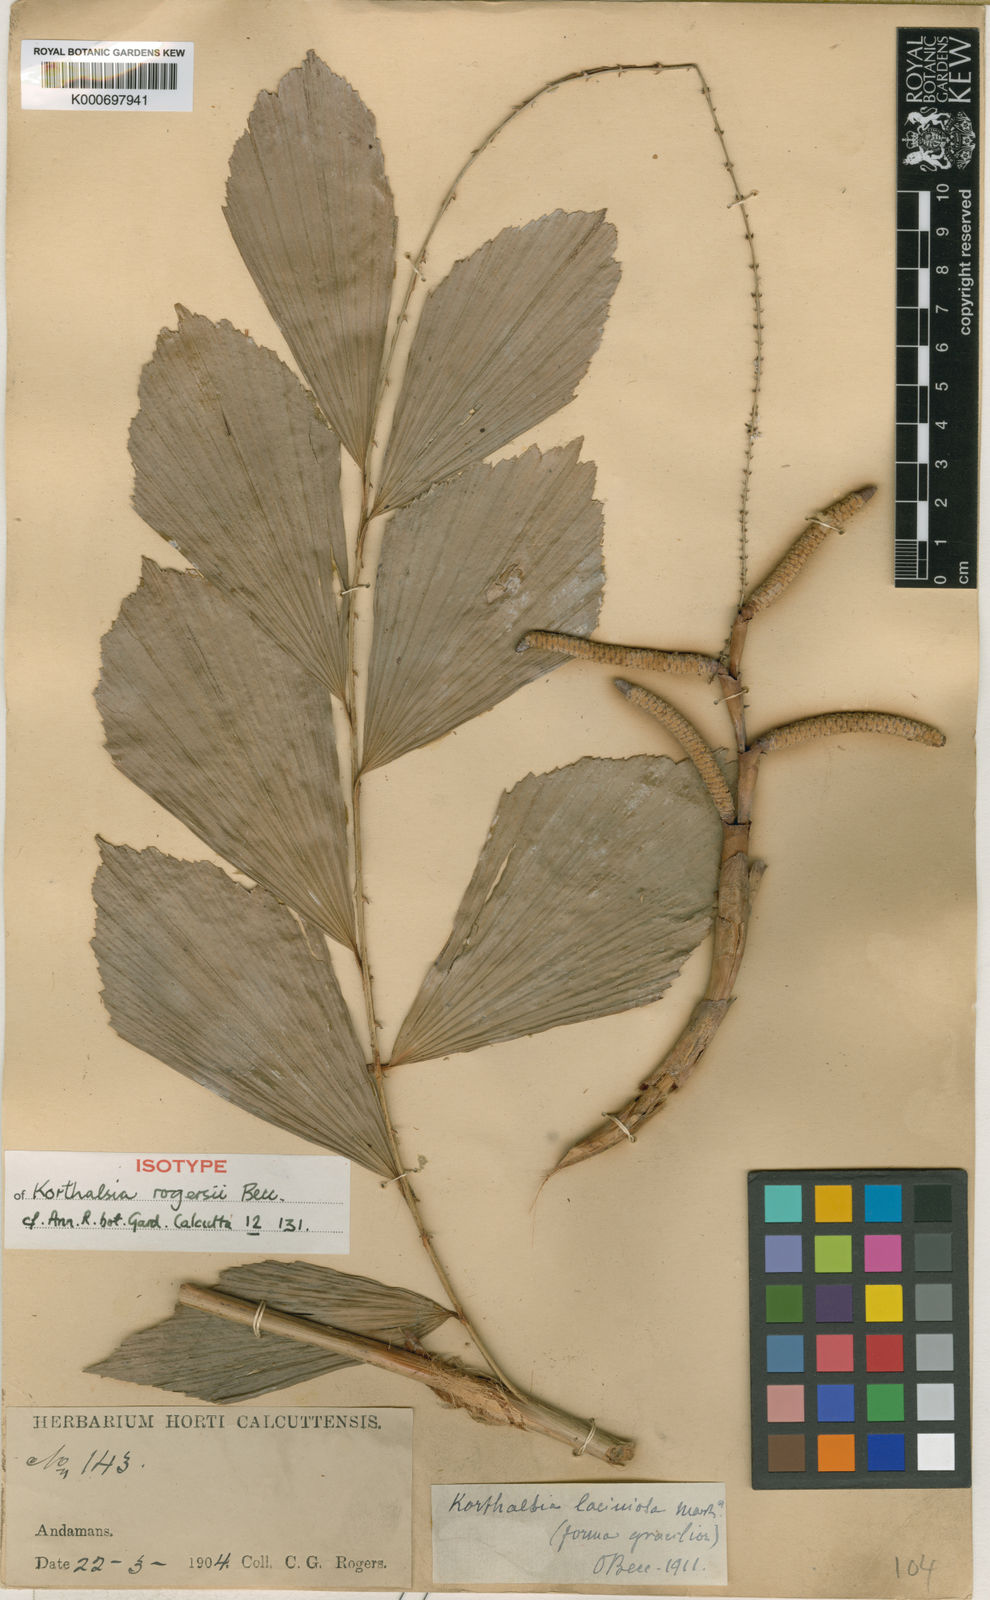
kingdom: Plantae
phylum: Tracheophyta
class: Liliopsida
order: Arecales
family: Arecaceae
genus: Korthalsia
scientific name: Korthalsia rogersii
